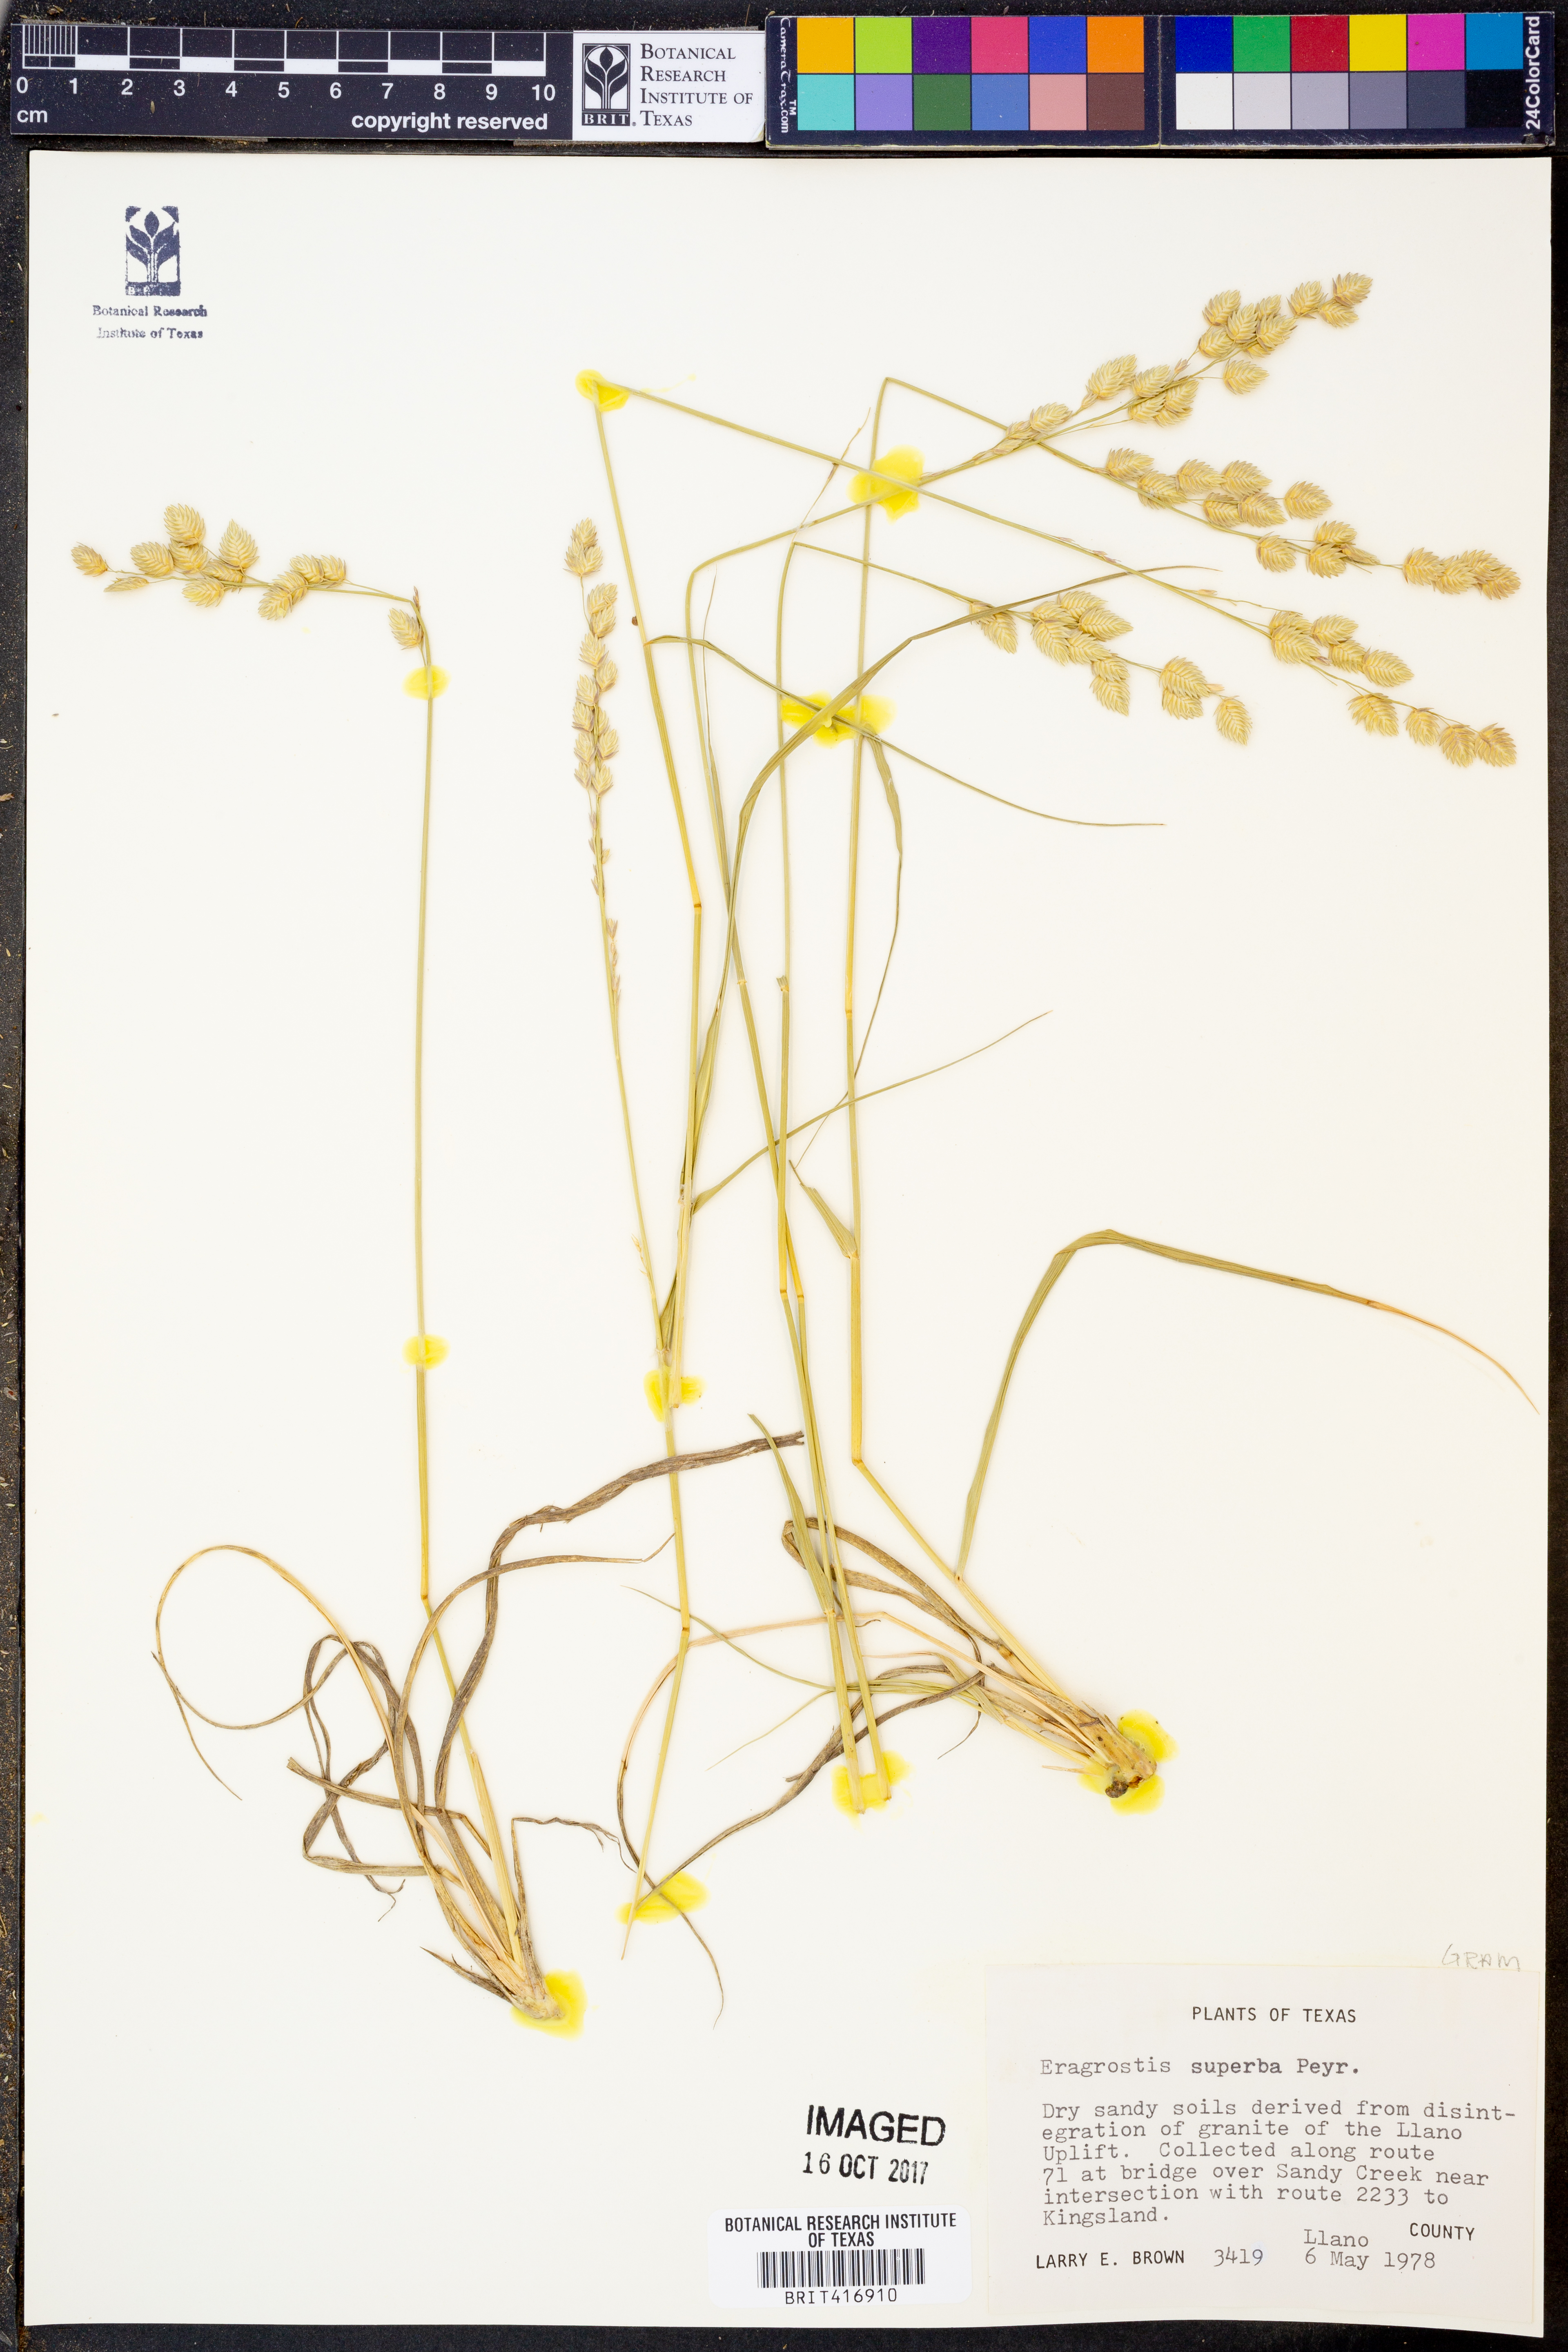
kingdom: Plantae
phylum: Tracheophyta
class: Liliopsida
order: Poales
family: Poaceae
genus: Eragrostis
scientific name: Eragrostis superba
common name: Wilman lovegrass
